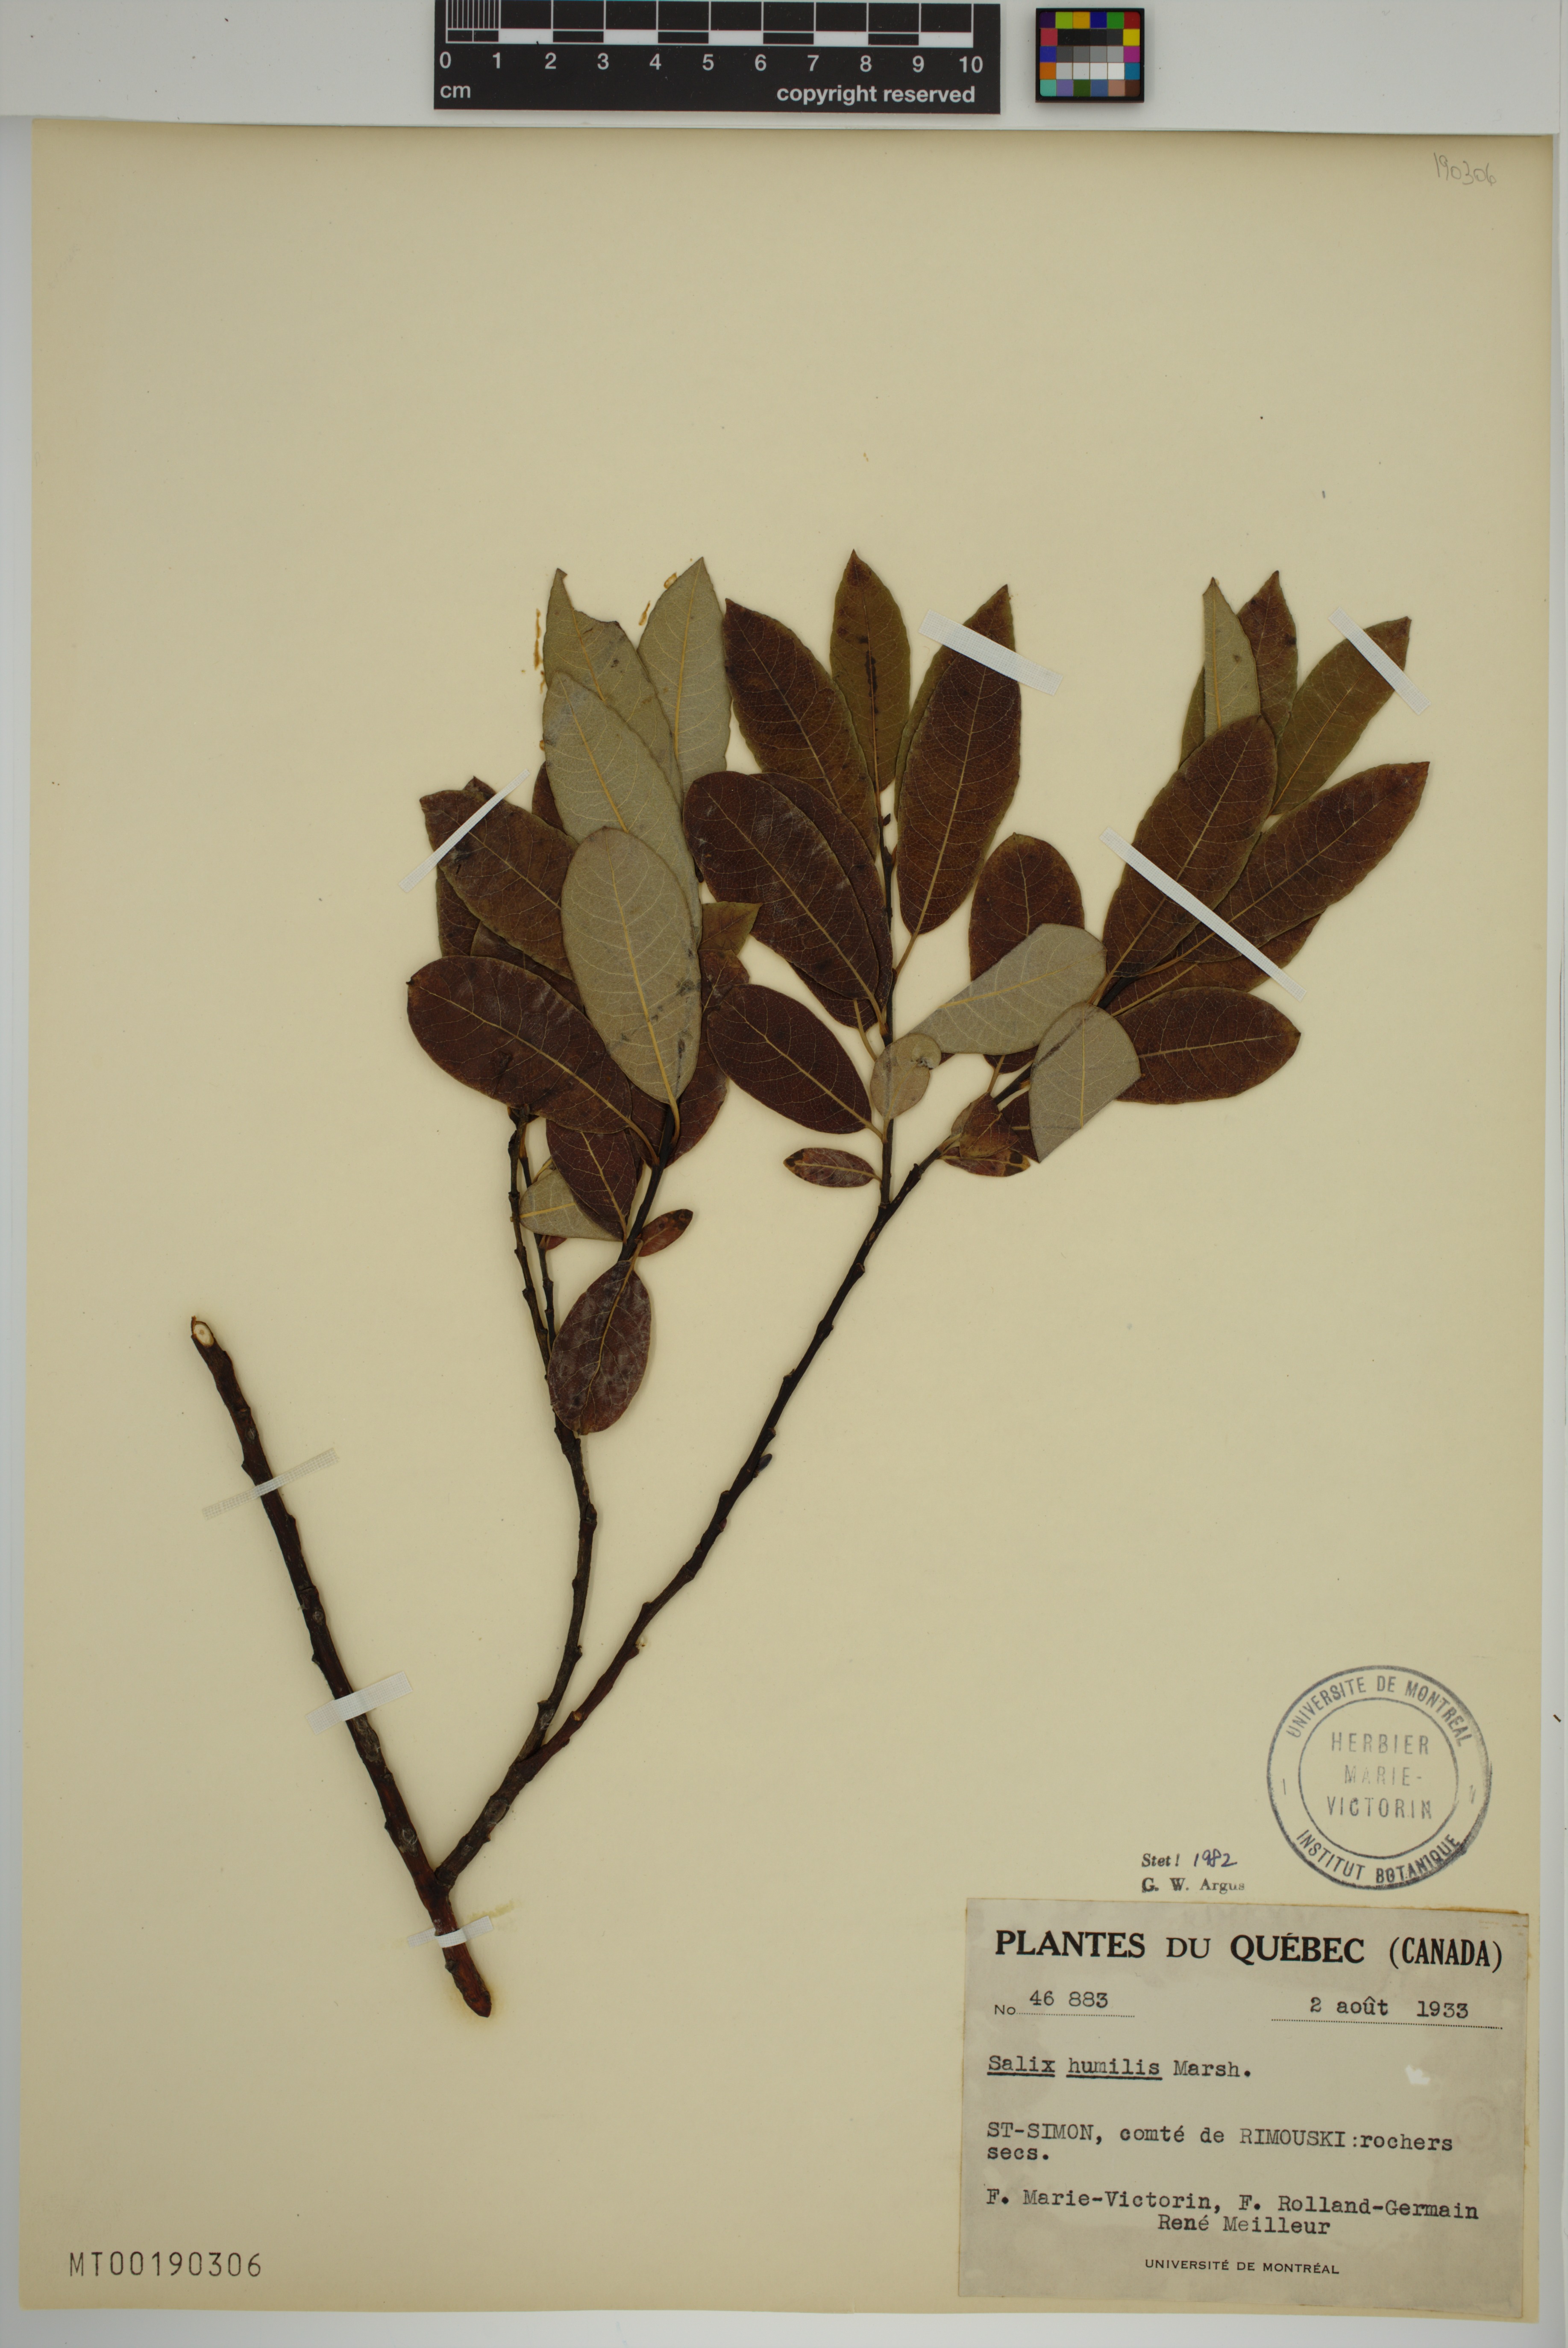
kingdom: Plantae
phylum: Tracheophyta
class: Magnoliopsida
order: Malpighiales
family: Salicaceae
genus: Salix
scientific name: Salix humilis
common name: Prairie willow
